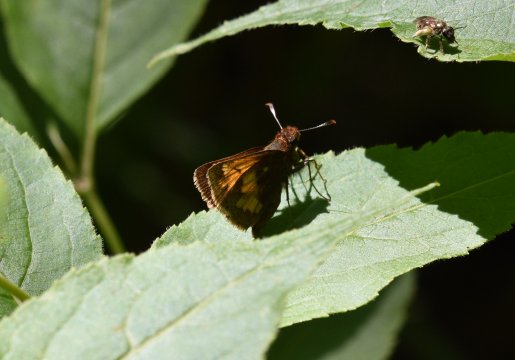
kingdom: Animalia
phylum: Arthropoda
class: Insecta
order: Lepidoptera
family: Hesperiidae
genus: Lon
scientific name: Lon hobomok
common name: Hobomok Skipper
